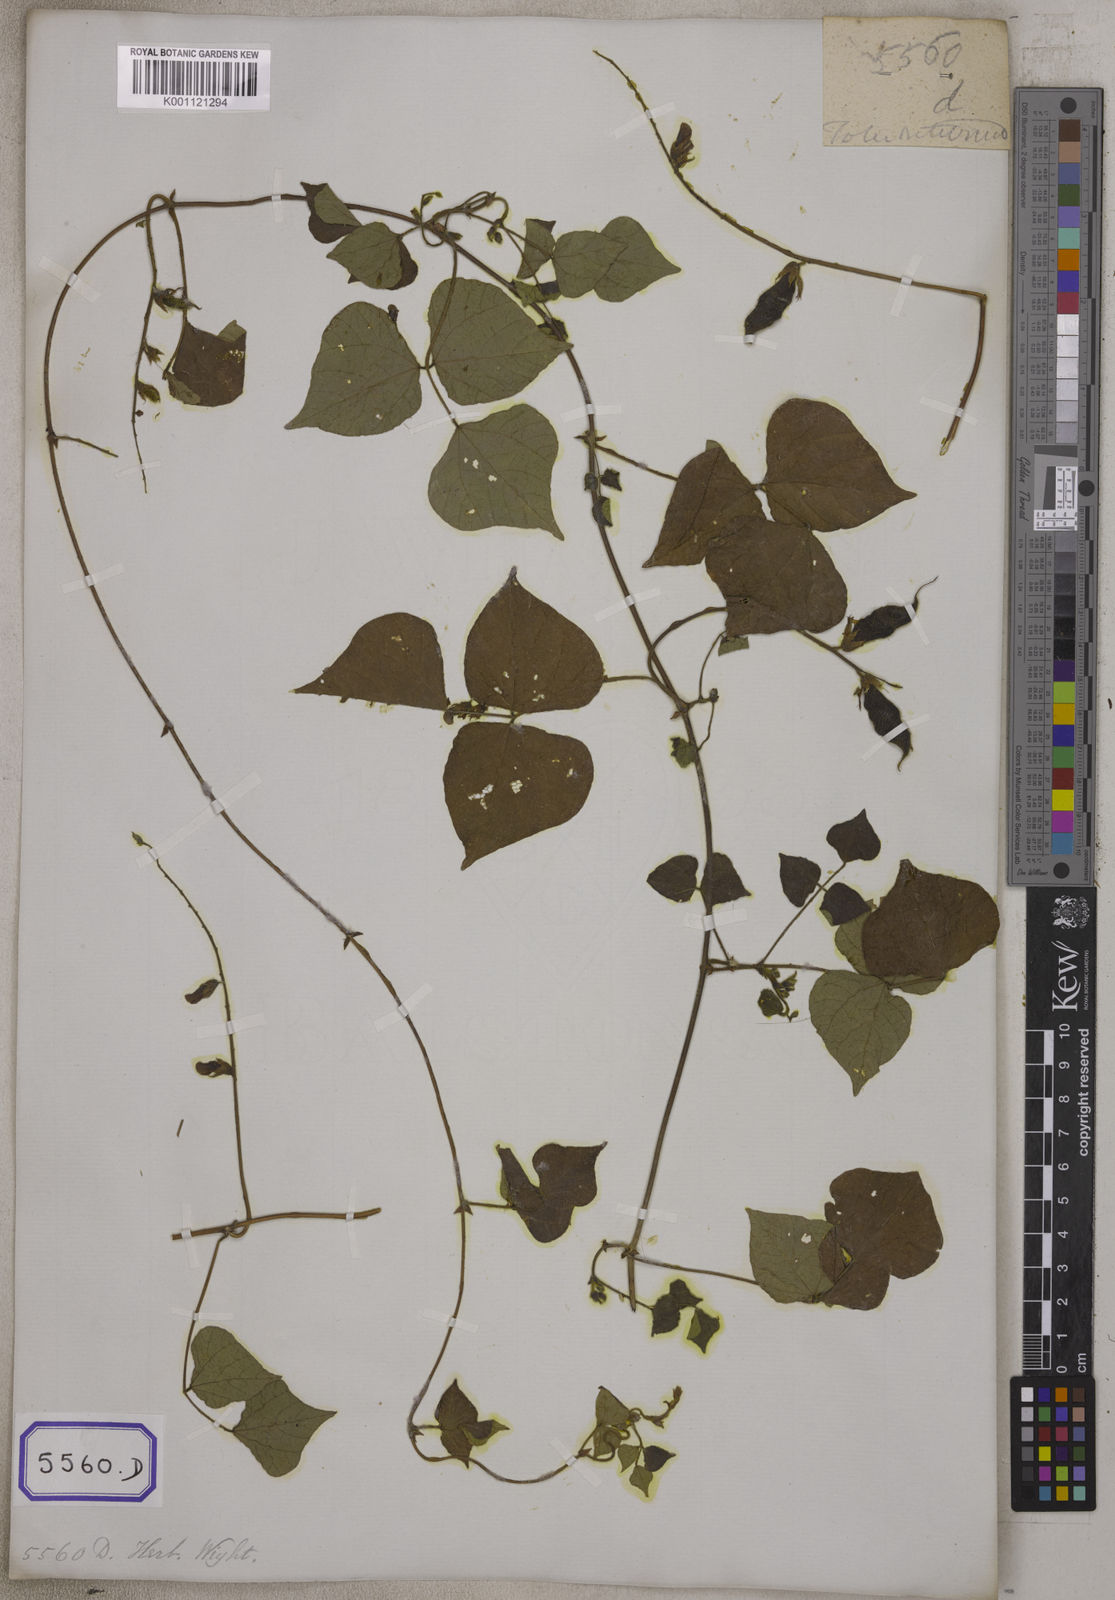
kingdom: Plantae
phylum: Tracheophyta
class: Magnoliopsida
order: Fabales
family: Fabaceae
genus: Rhynchosia
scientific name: Rhynchosia viscosa
